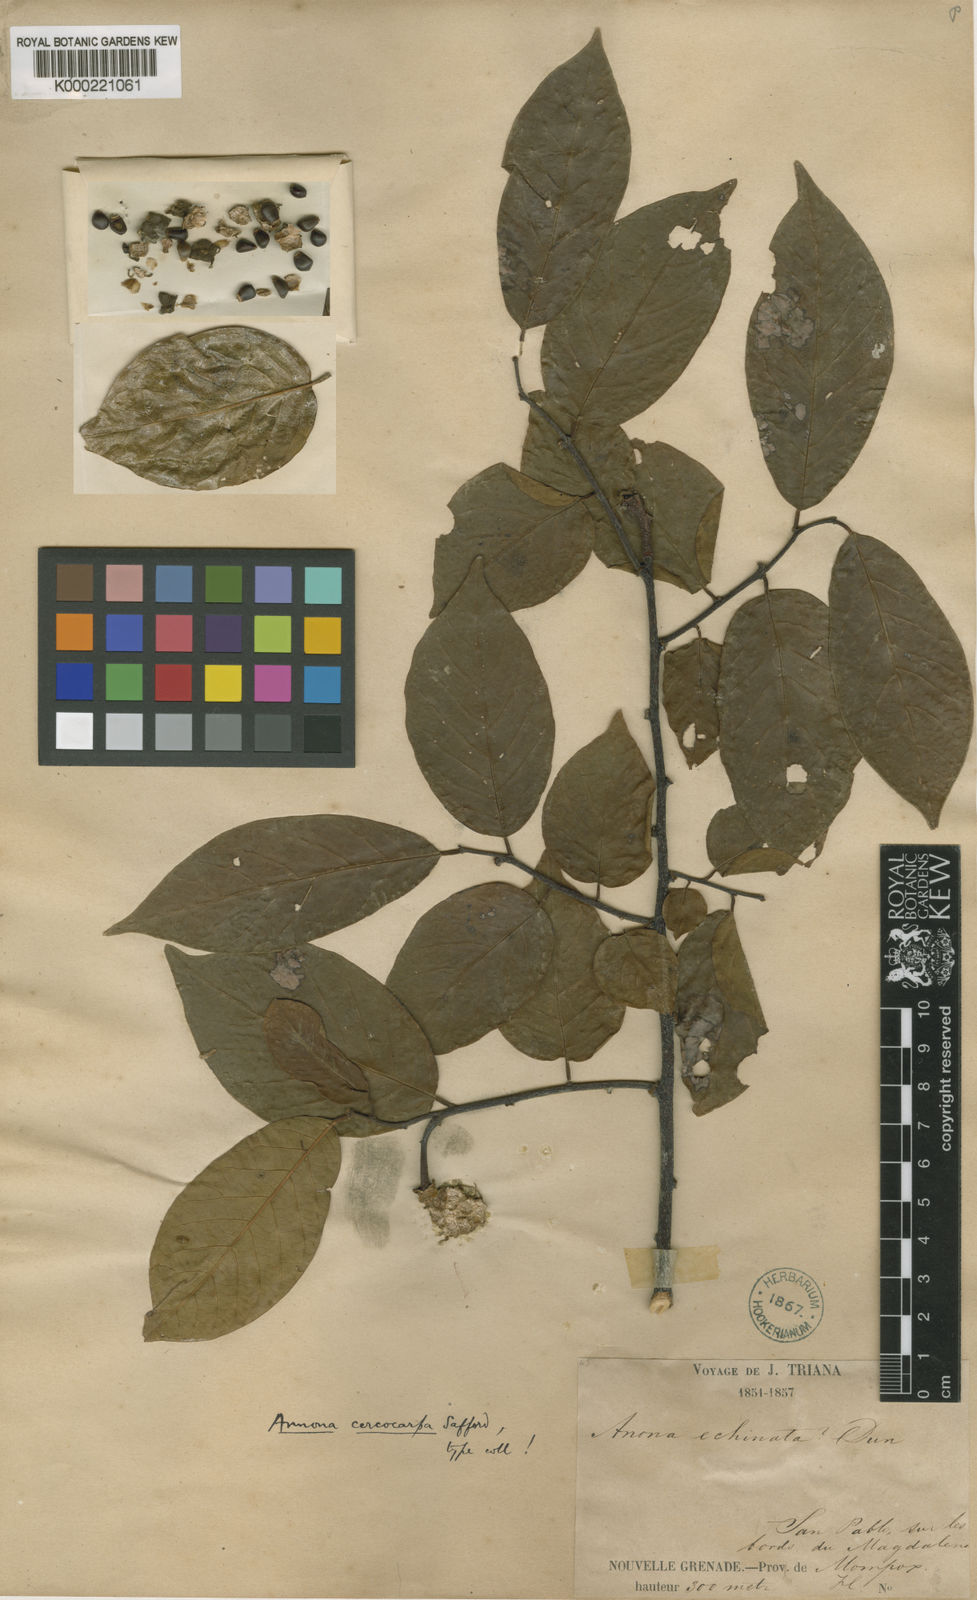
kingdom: Plantae
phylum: Tracheophyta
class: Magnoliopsida
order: Magnoliales
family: Annonaceae
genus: Annona
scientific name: Annona cercocarpa
